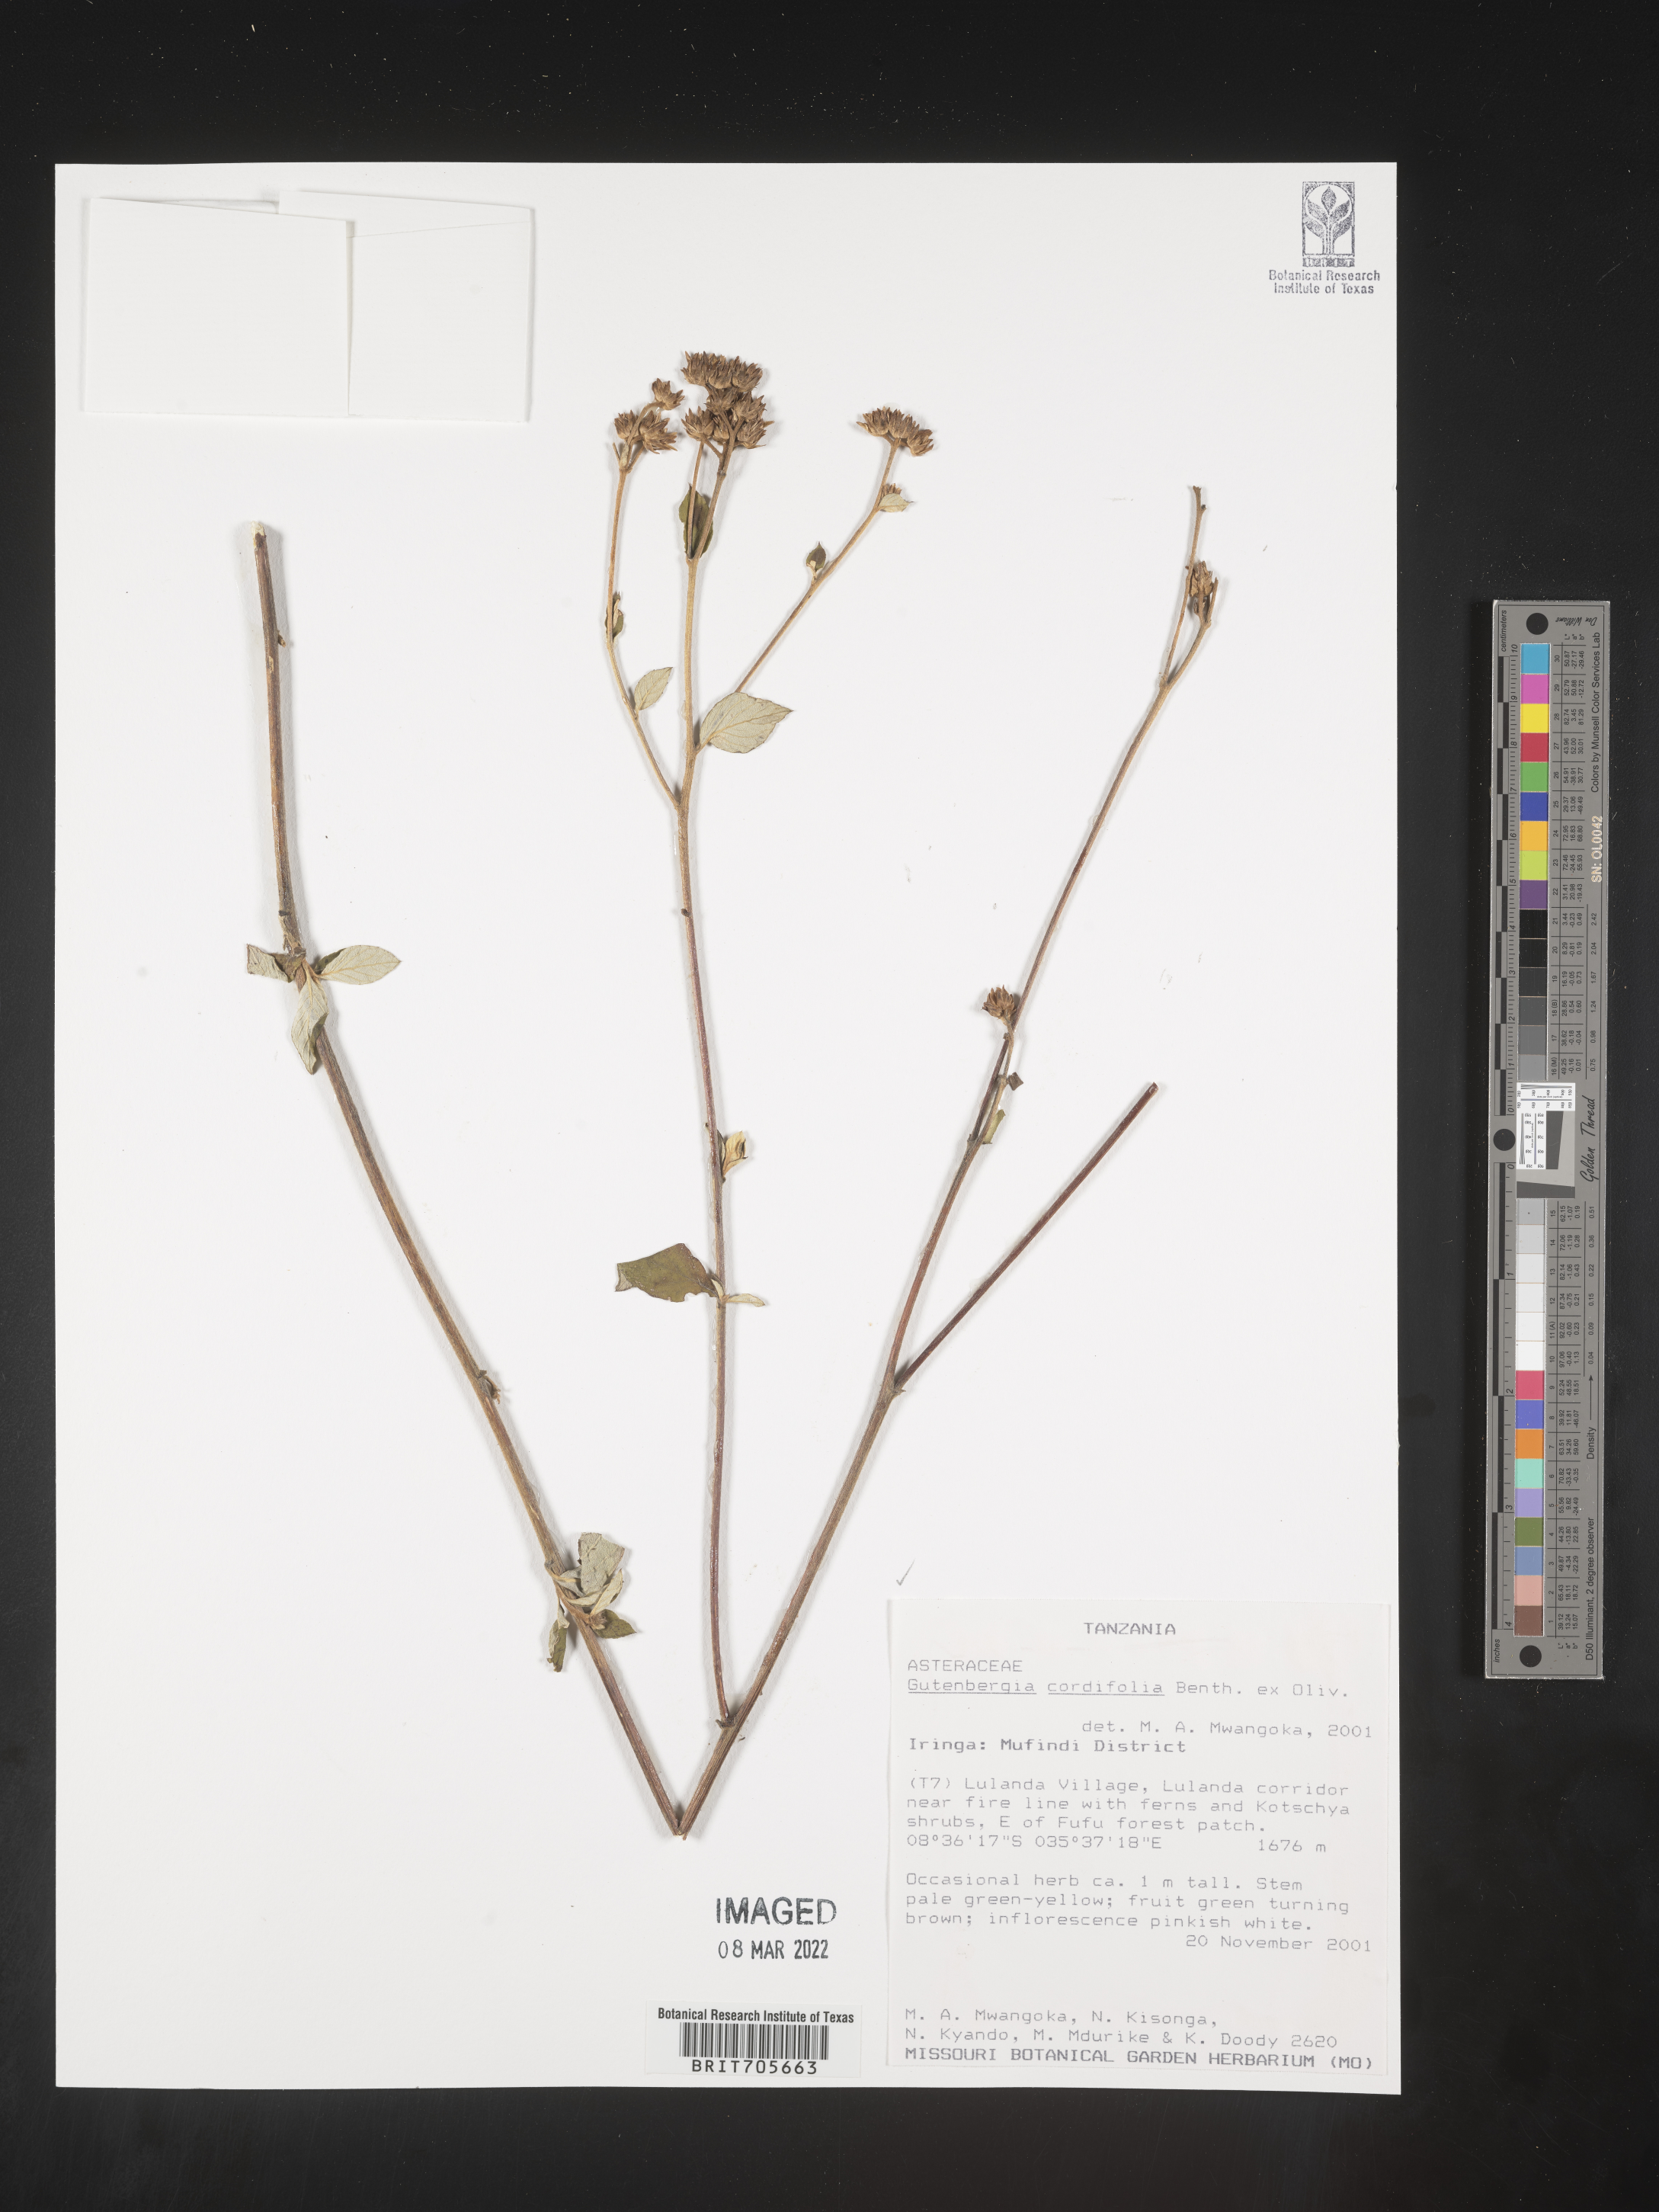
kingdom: Plantae
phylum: Tracheophyta
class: Magnoliopsida
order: Asterales
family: Asteraceae
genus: Gutenbergia
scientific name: Gutenbergia
